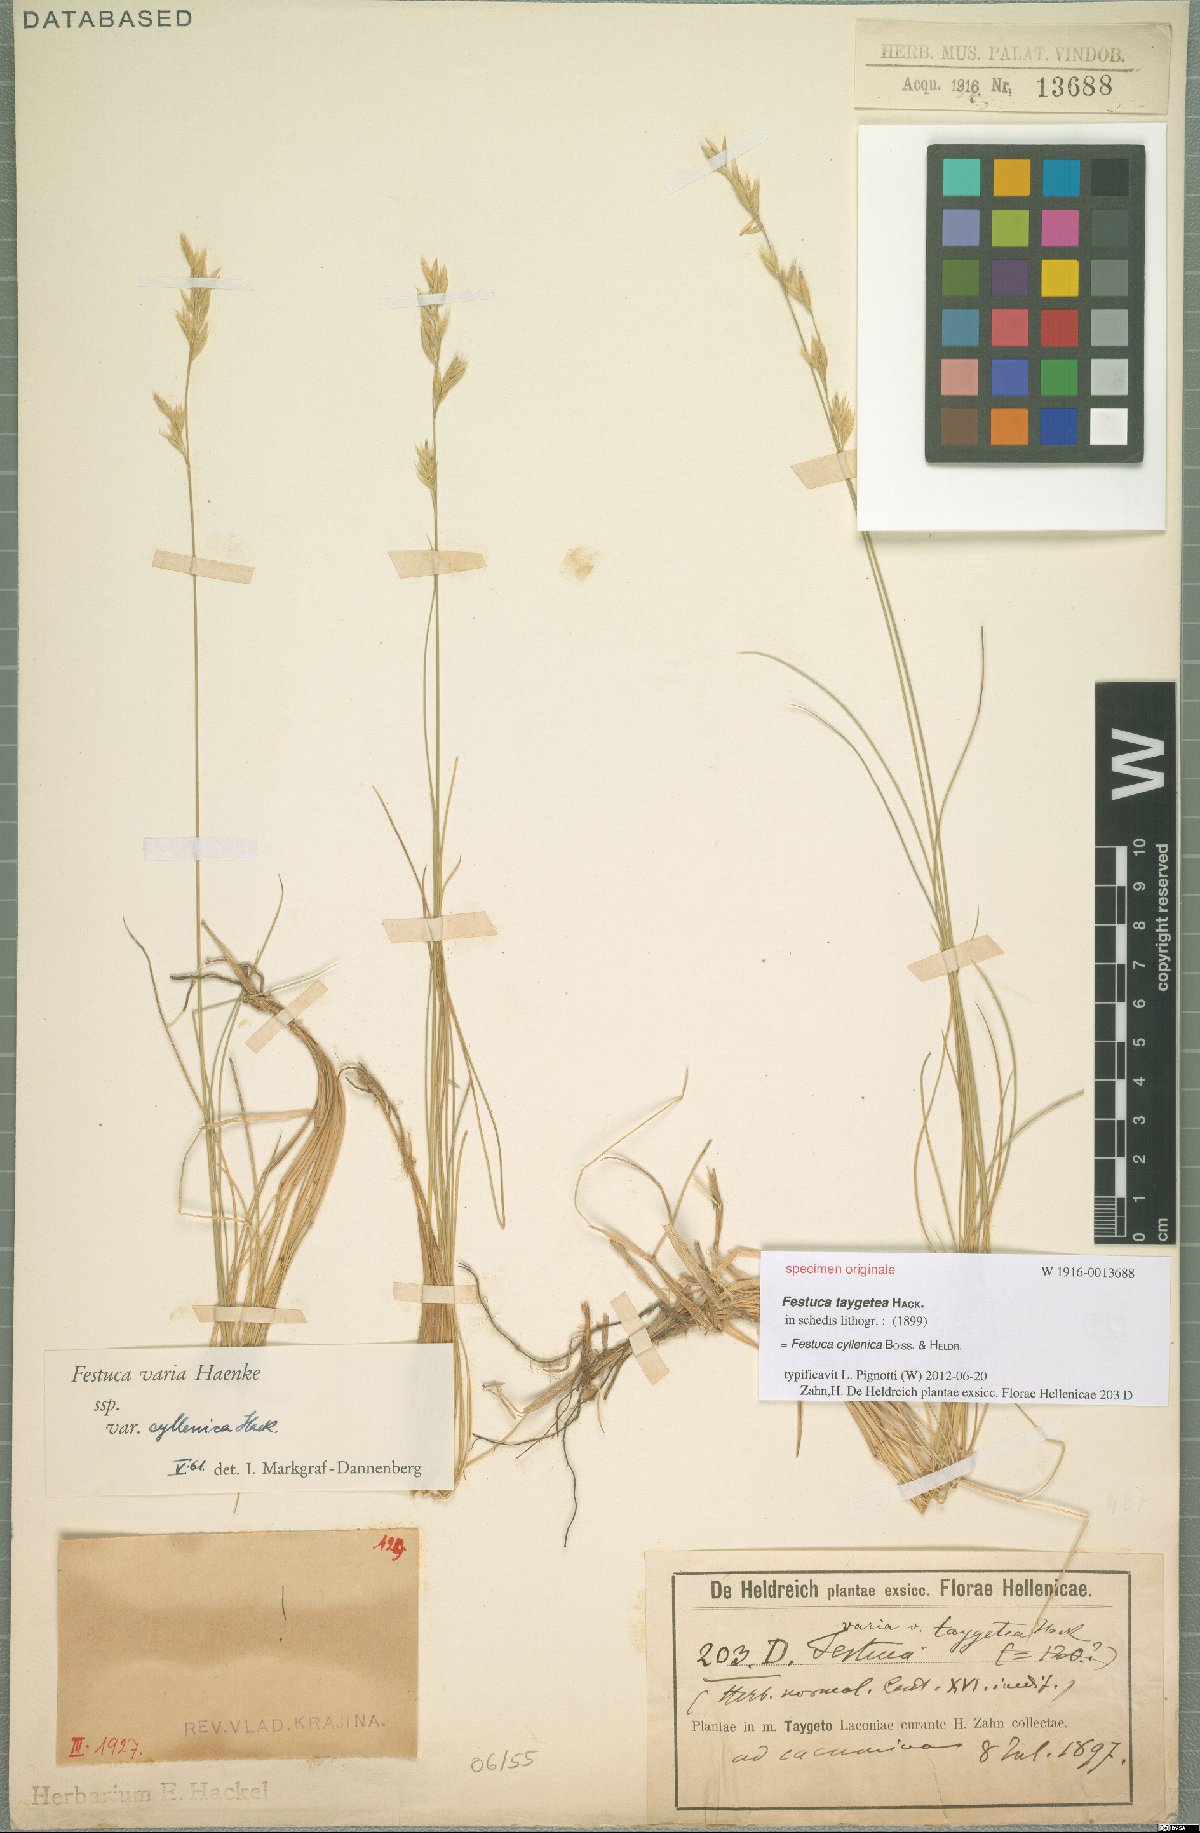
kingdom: Plantae
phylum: Tracheophyta
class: Liliopsida
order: Poales
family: Poaceae
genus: Festuca
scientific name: Festuca cyllenica
